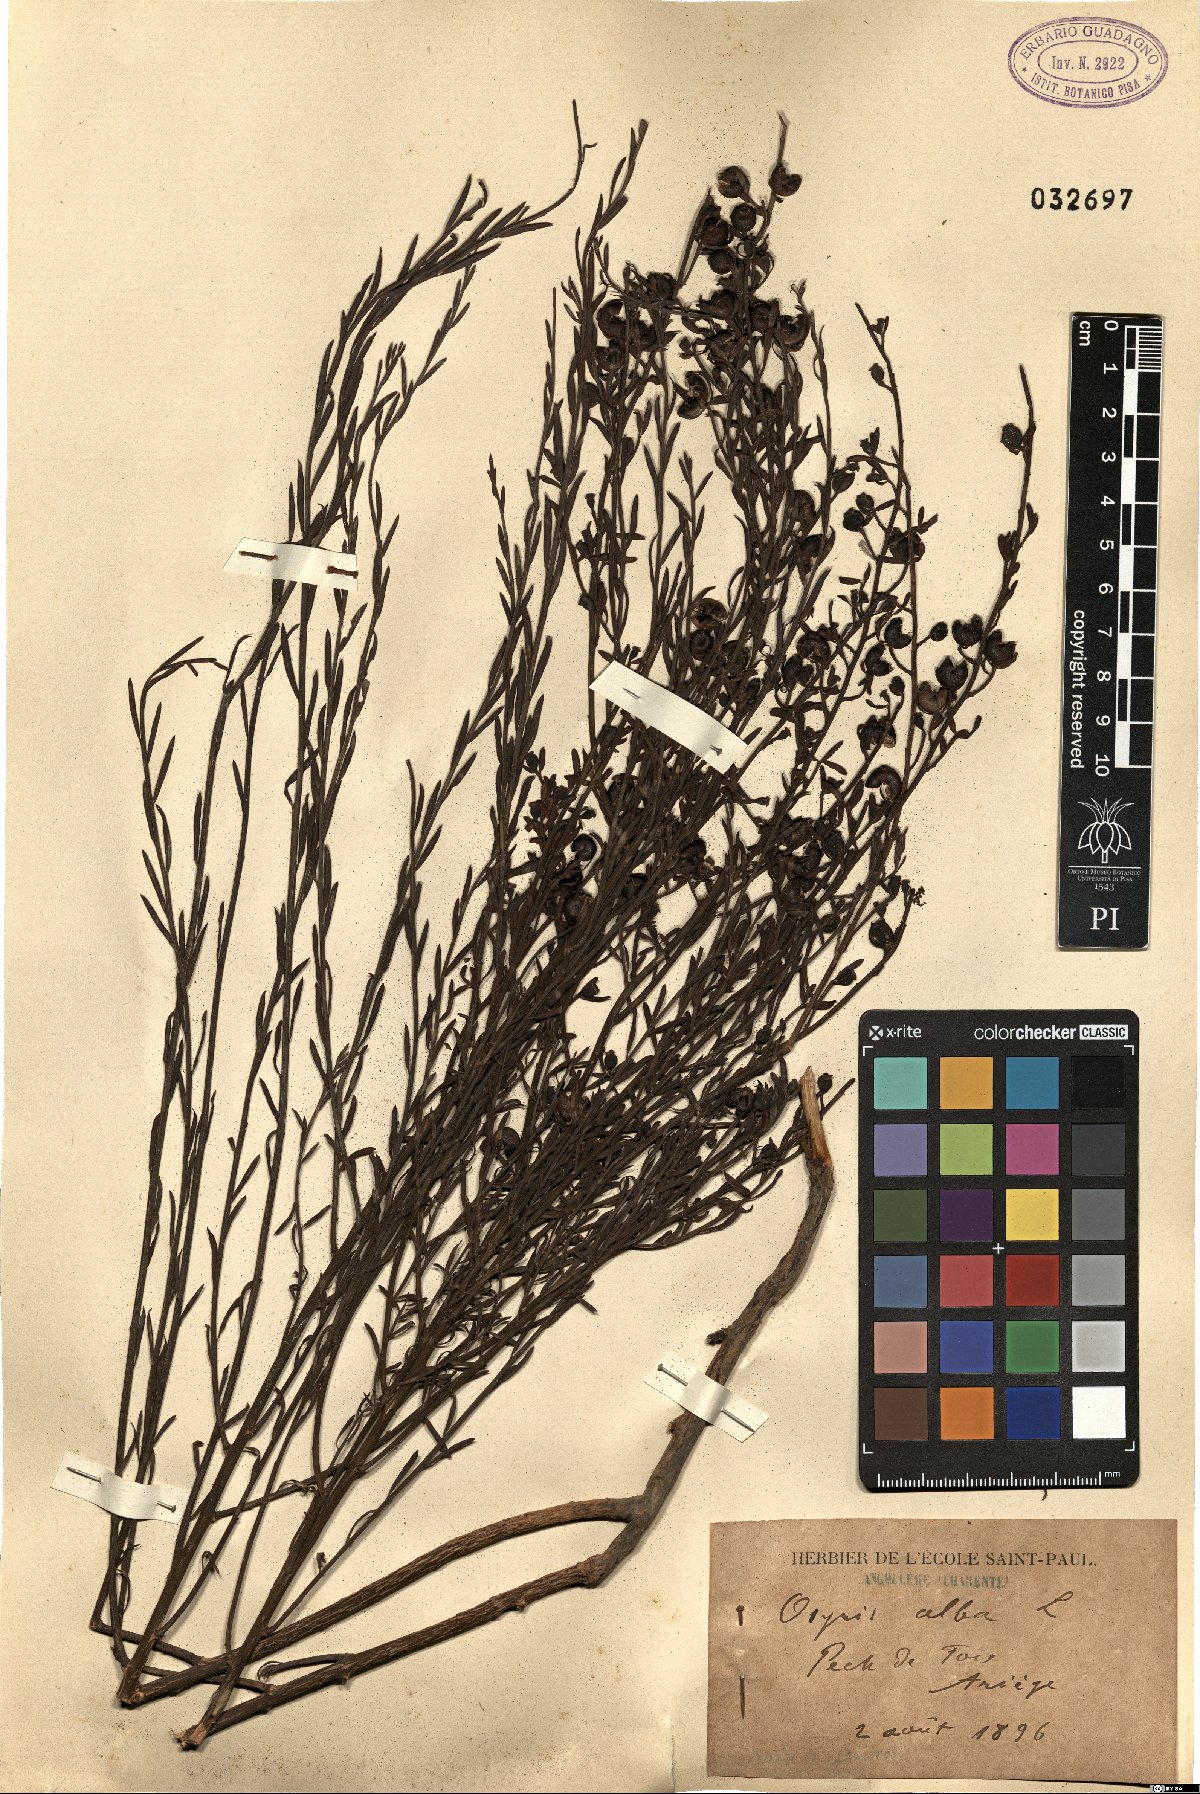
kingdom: Plantae
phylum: Tracheophyta
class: Magnoliopsida
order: Santalales
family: Santalaceae
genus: Osyris
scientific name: Osyris alba
